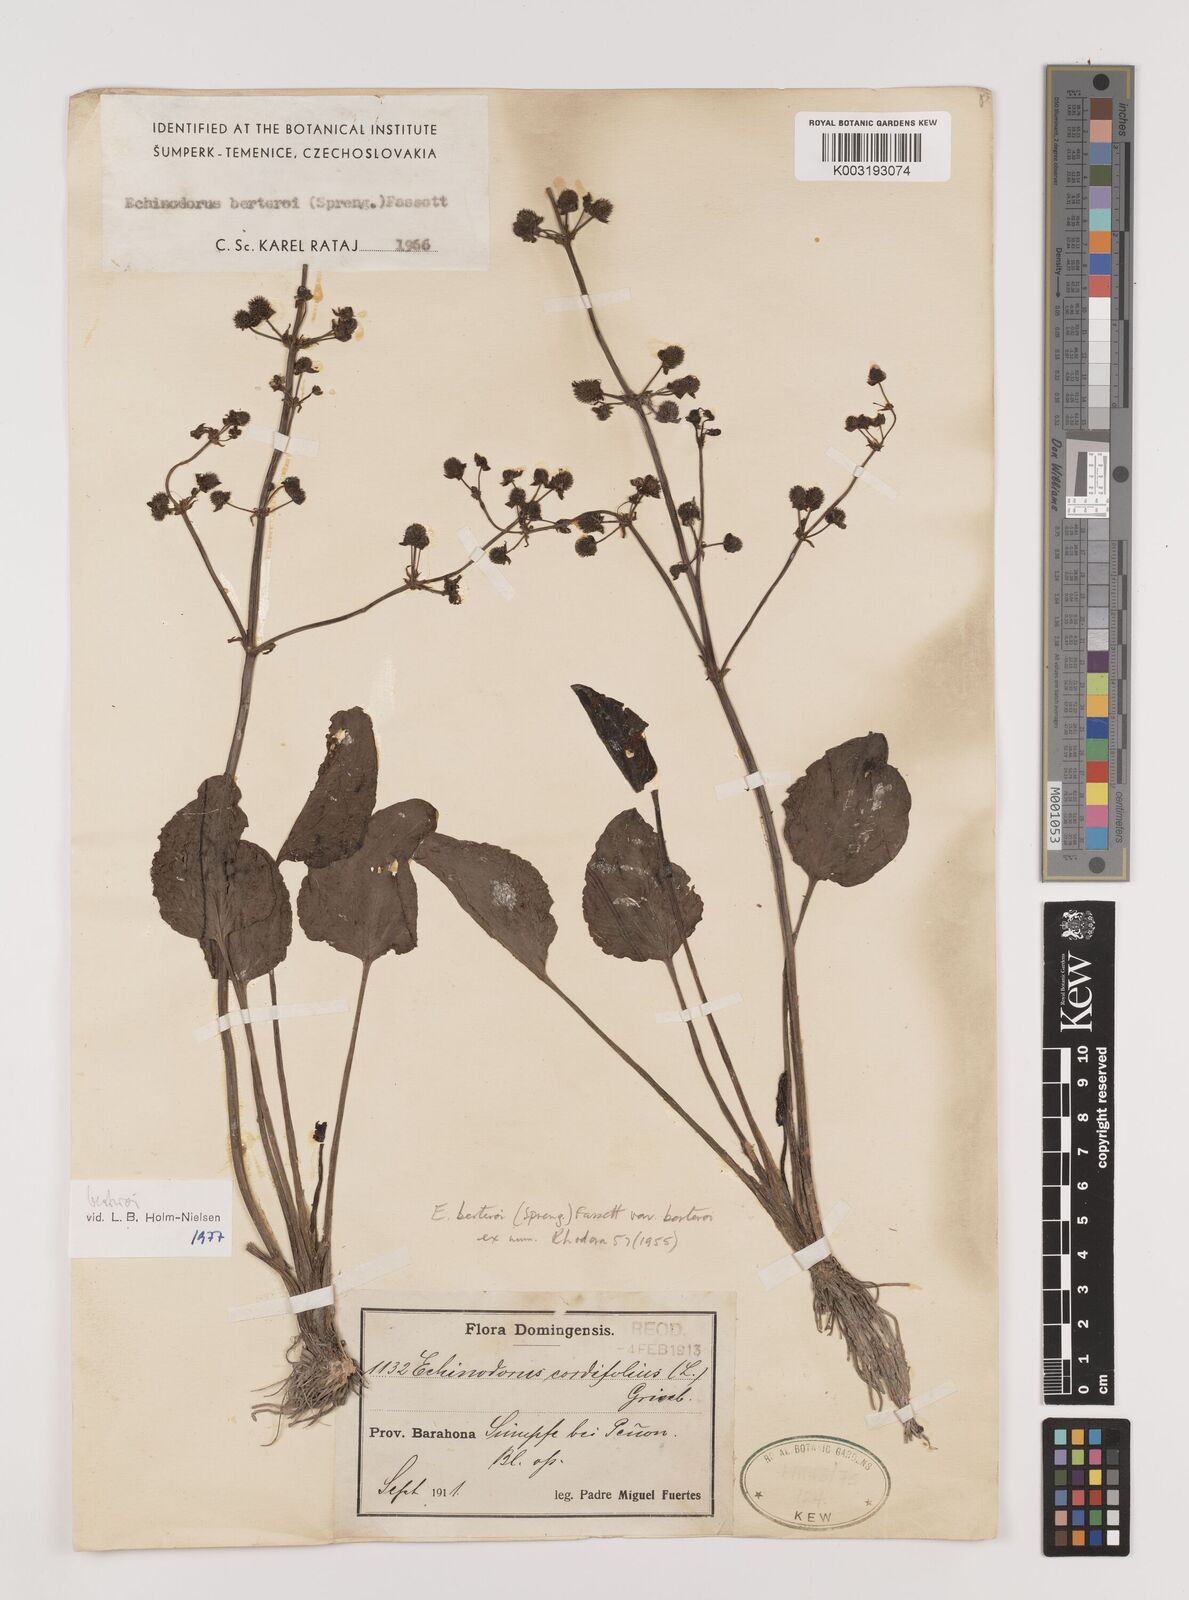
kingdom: Plantae
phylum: Tracheophyta
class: Liliopsida
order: Alismatales
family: Alismataceae
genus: Echinodorus
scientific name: Echinodorus berteroi
